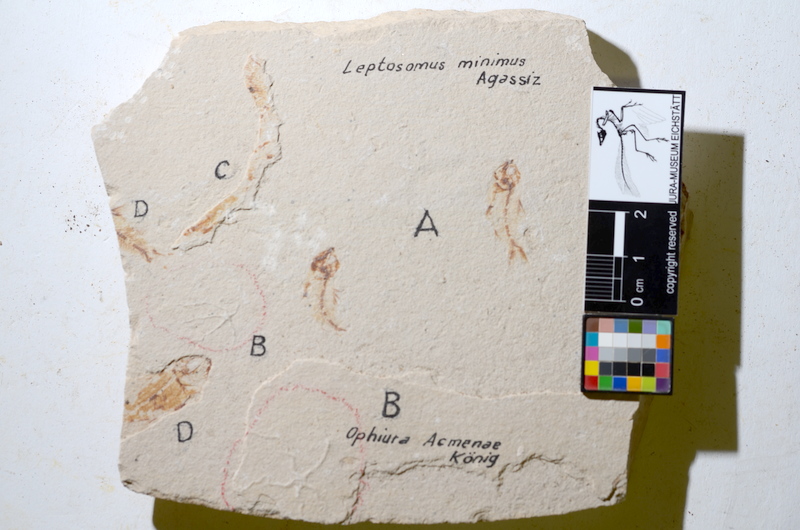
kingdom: Animalia
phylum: Chordata
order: Clupeiformes
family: Clupeidae
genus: Clupea
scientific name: Clupea harengus
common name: Herring
